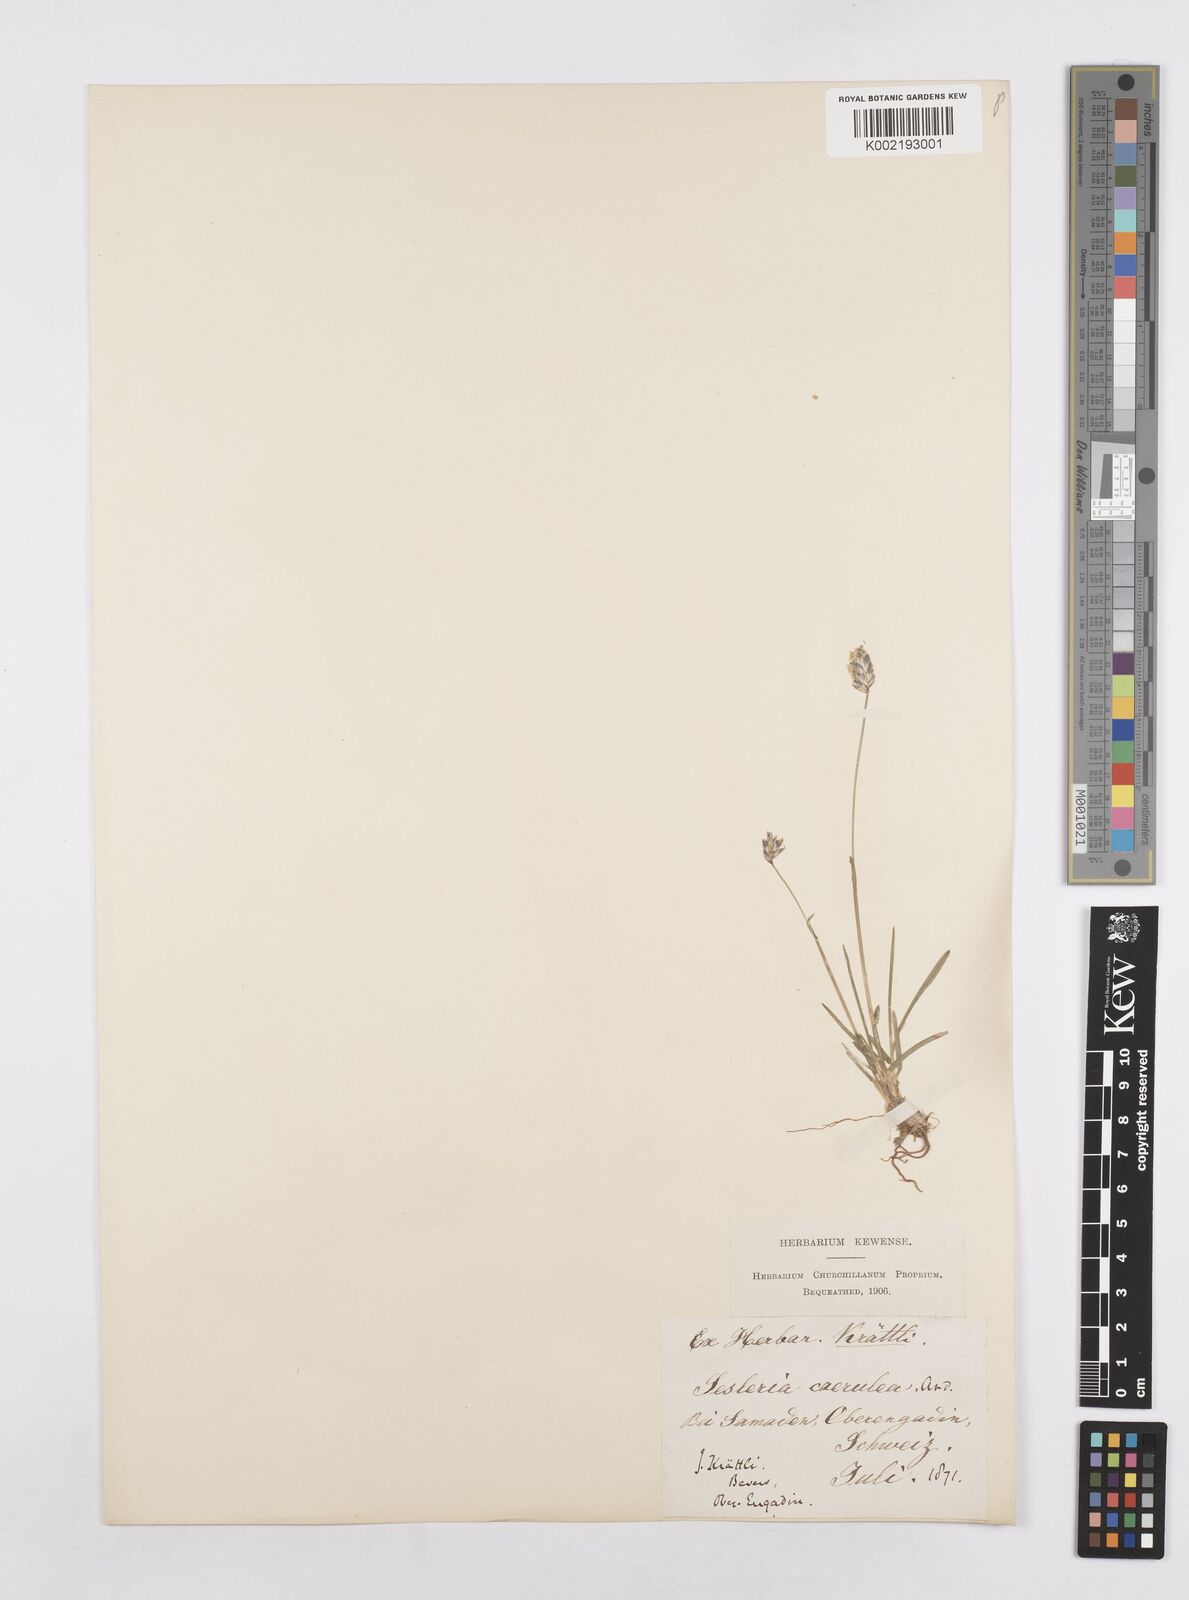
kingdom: Plantae
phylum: Tracheophyta
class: Liliopsida
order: Poales
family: Poaceae
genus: Sesleria
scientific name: Sesleria caerulea
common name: Blue moor-grass
